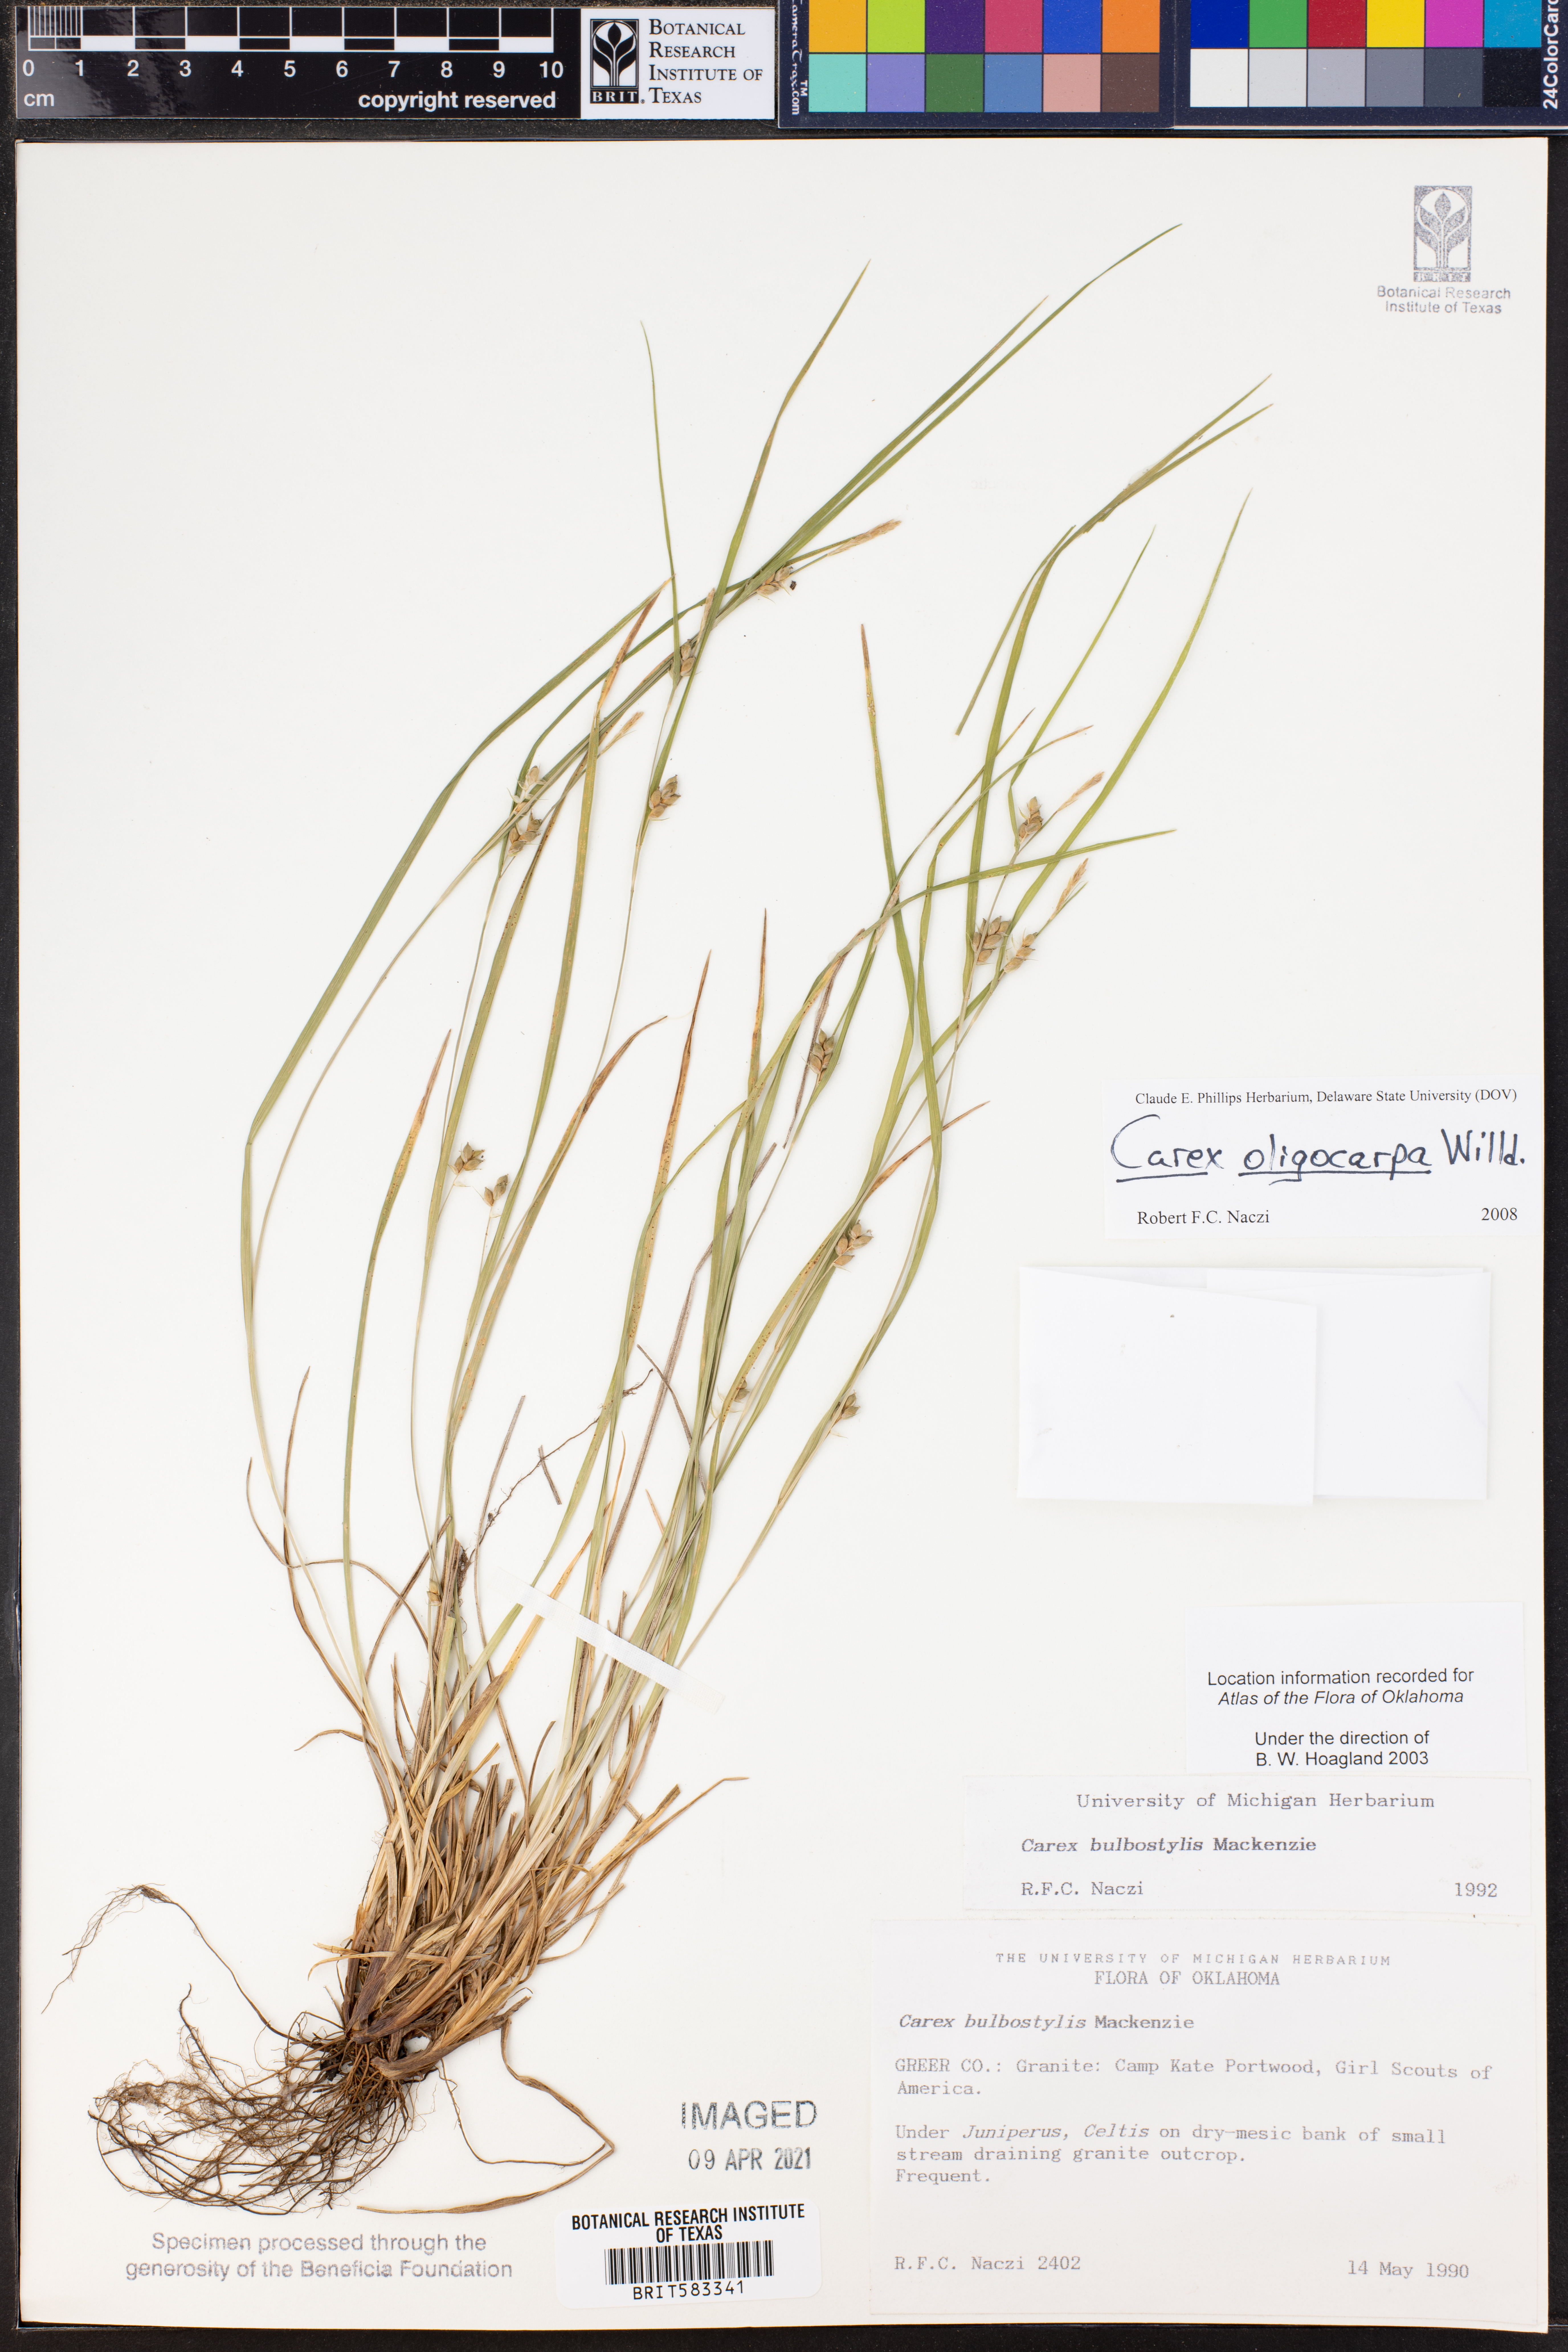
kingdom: Plantae
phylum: Tracheophyta
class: Liliopsida
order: Poales
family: Cyperaceae
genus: Carex
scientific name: Carex oligocarpa
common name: Eastern few-fruited sedge
